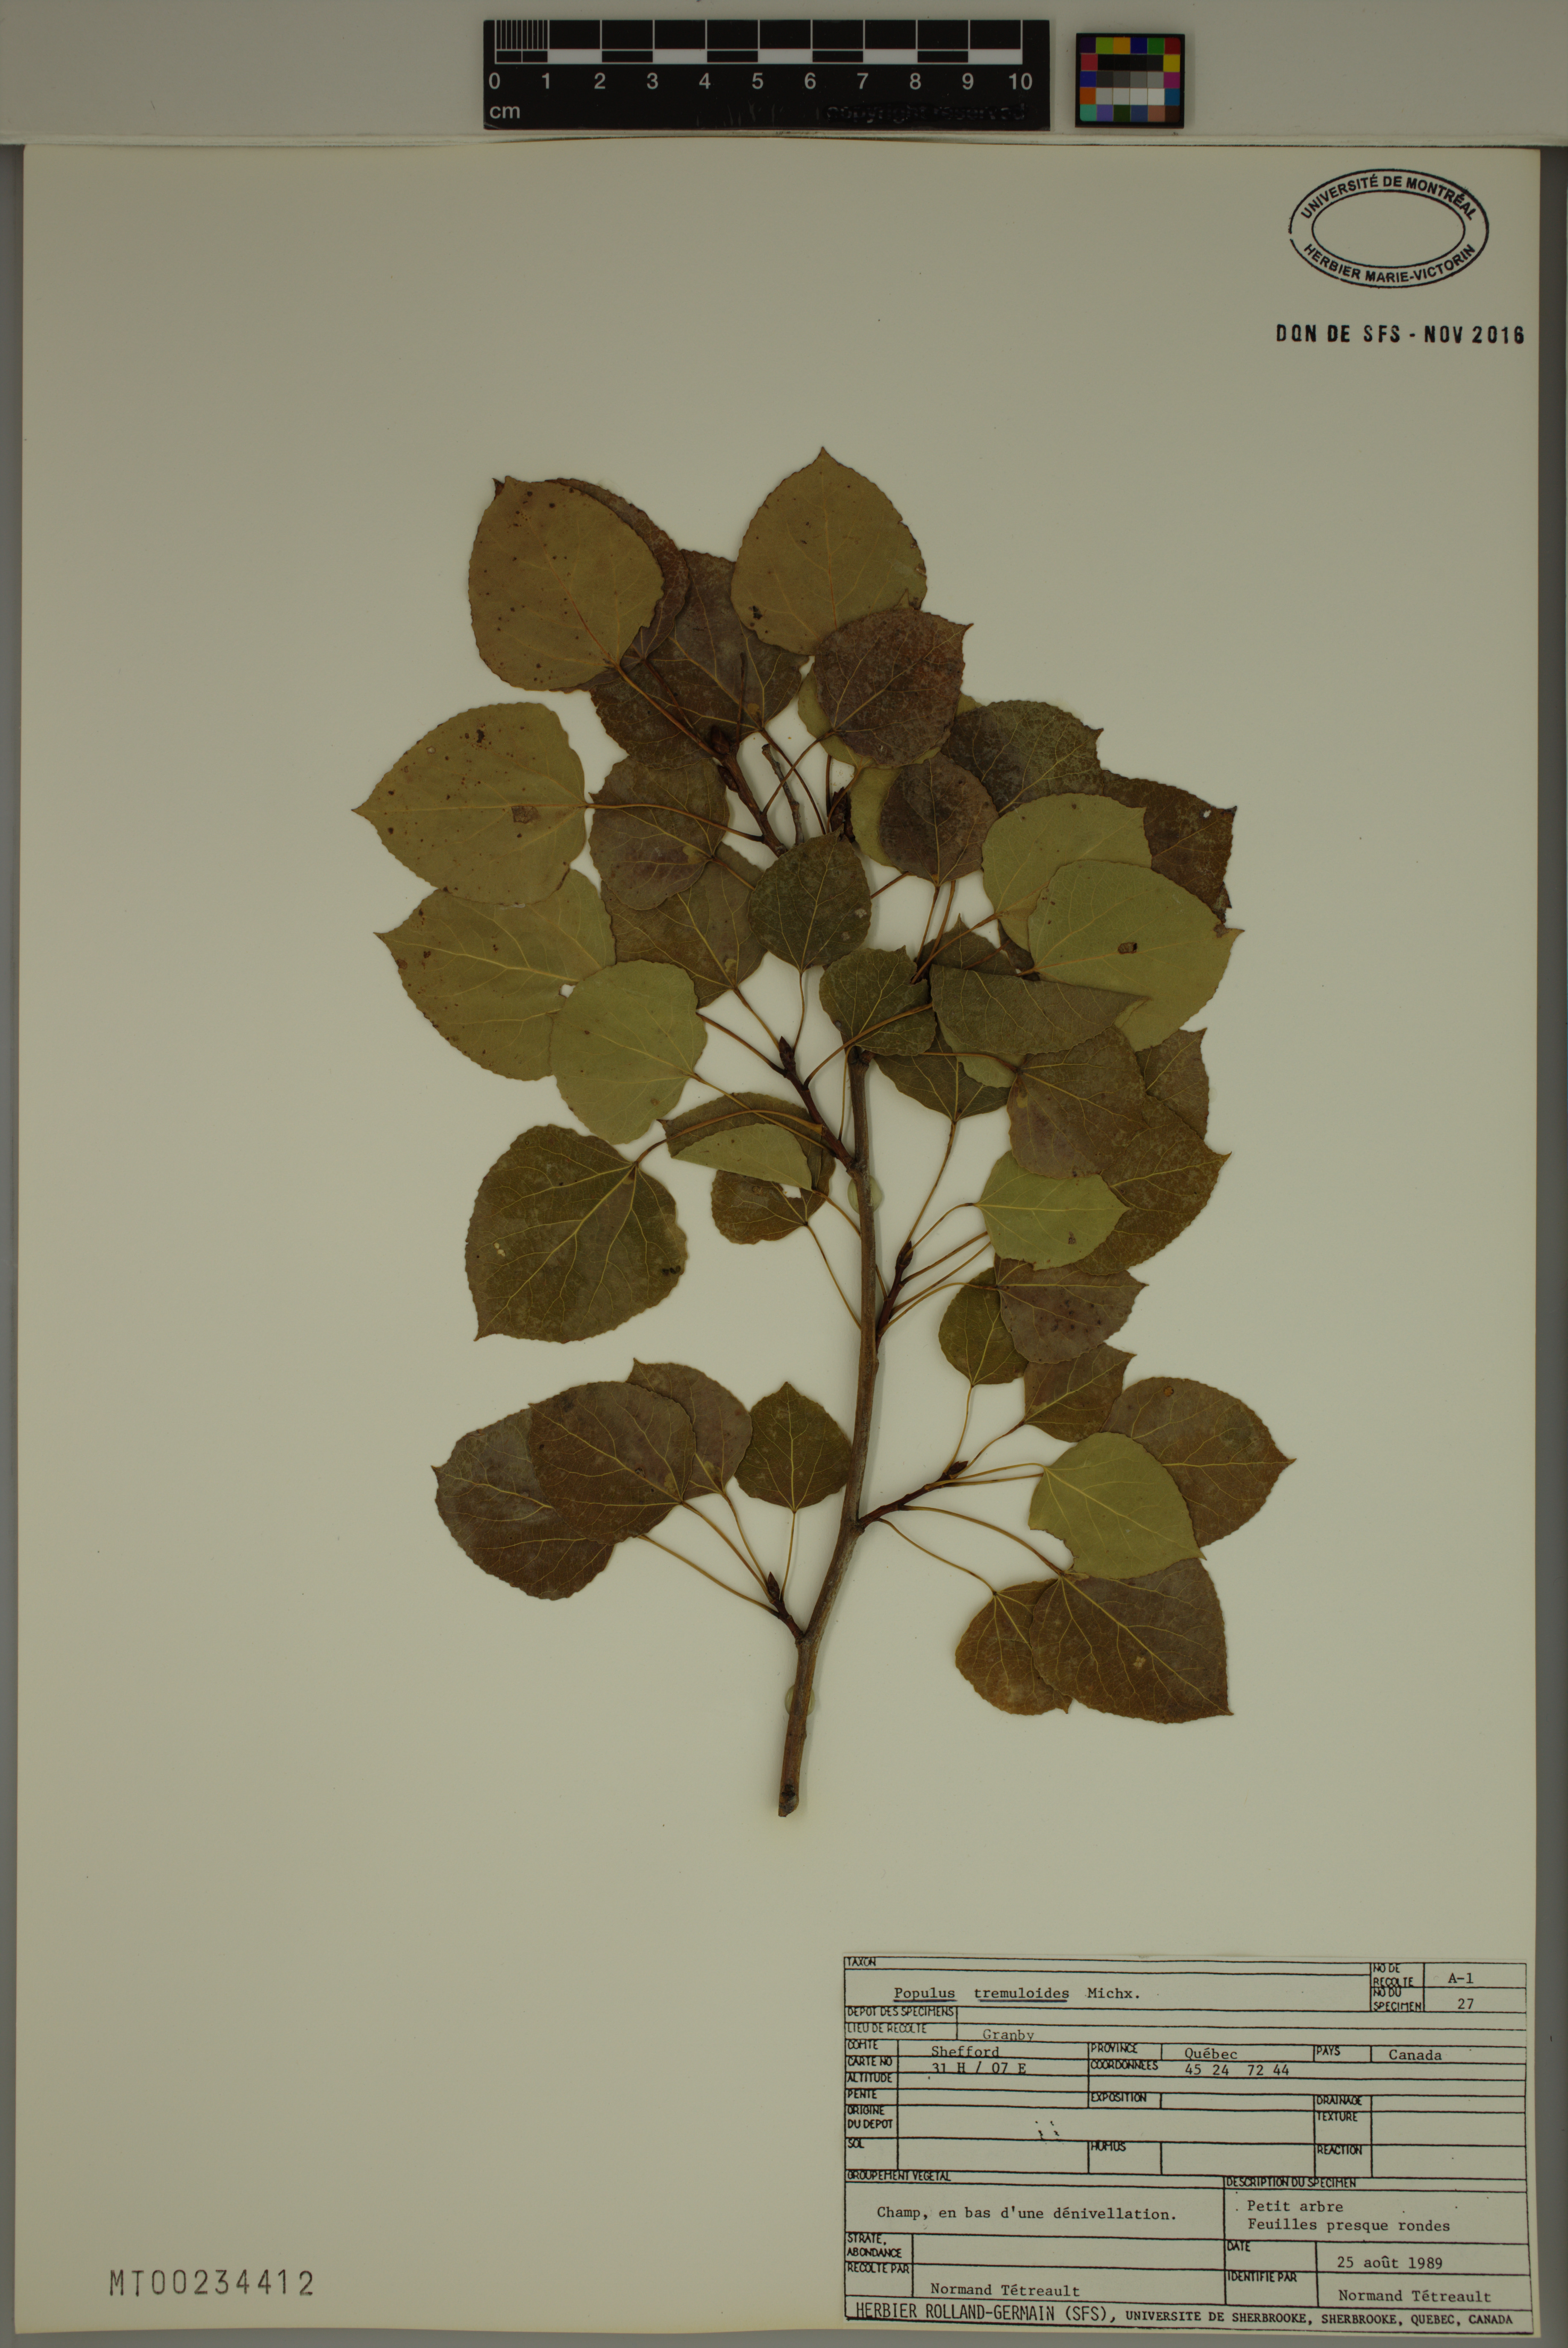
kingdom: Plantae
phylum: Tracheophyta
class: Magnoliopsida
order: Malpighiales
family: Salicaceae
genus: Populus
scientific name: Populus tremuloides
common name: Quaking aspen
